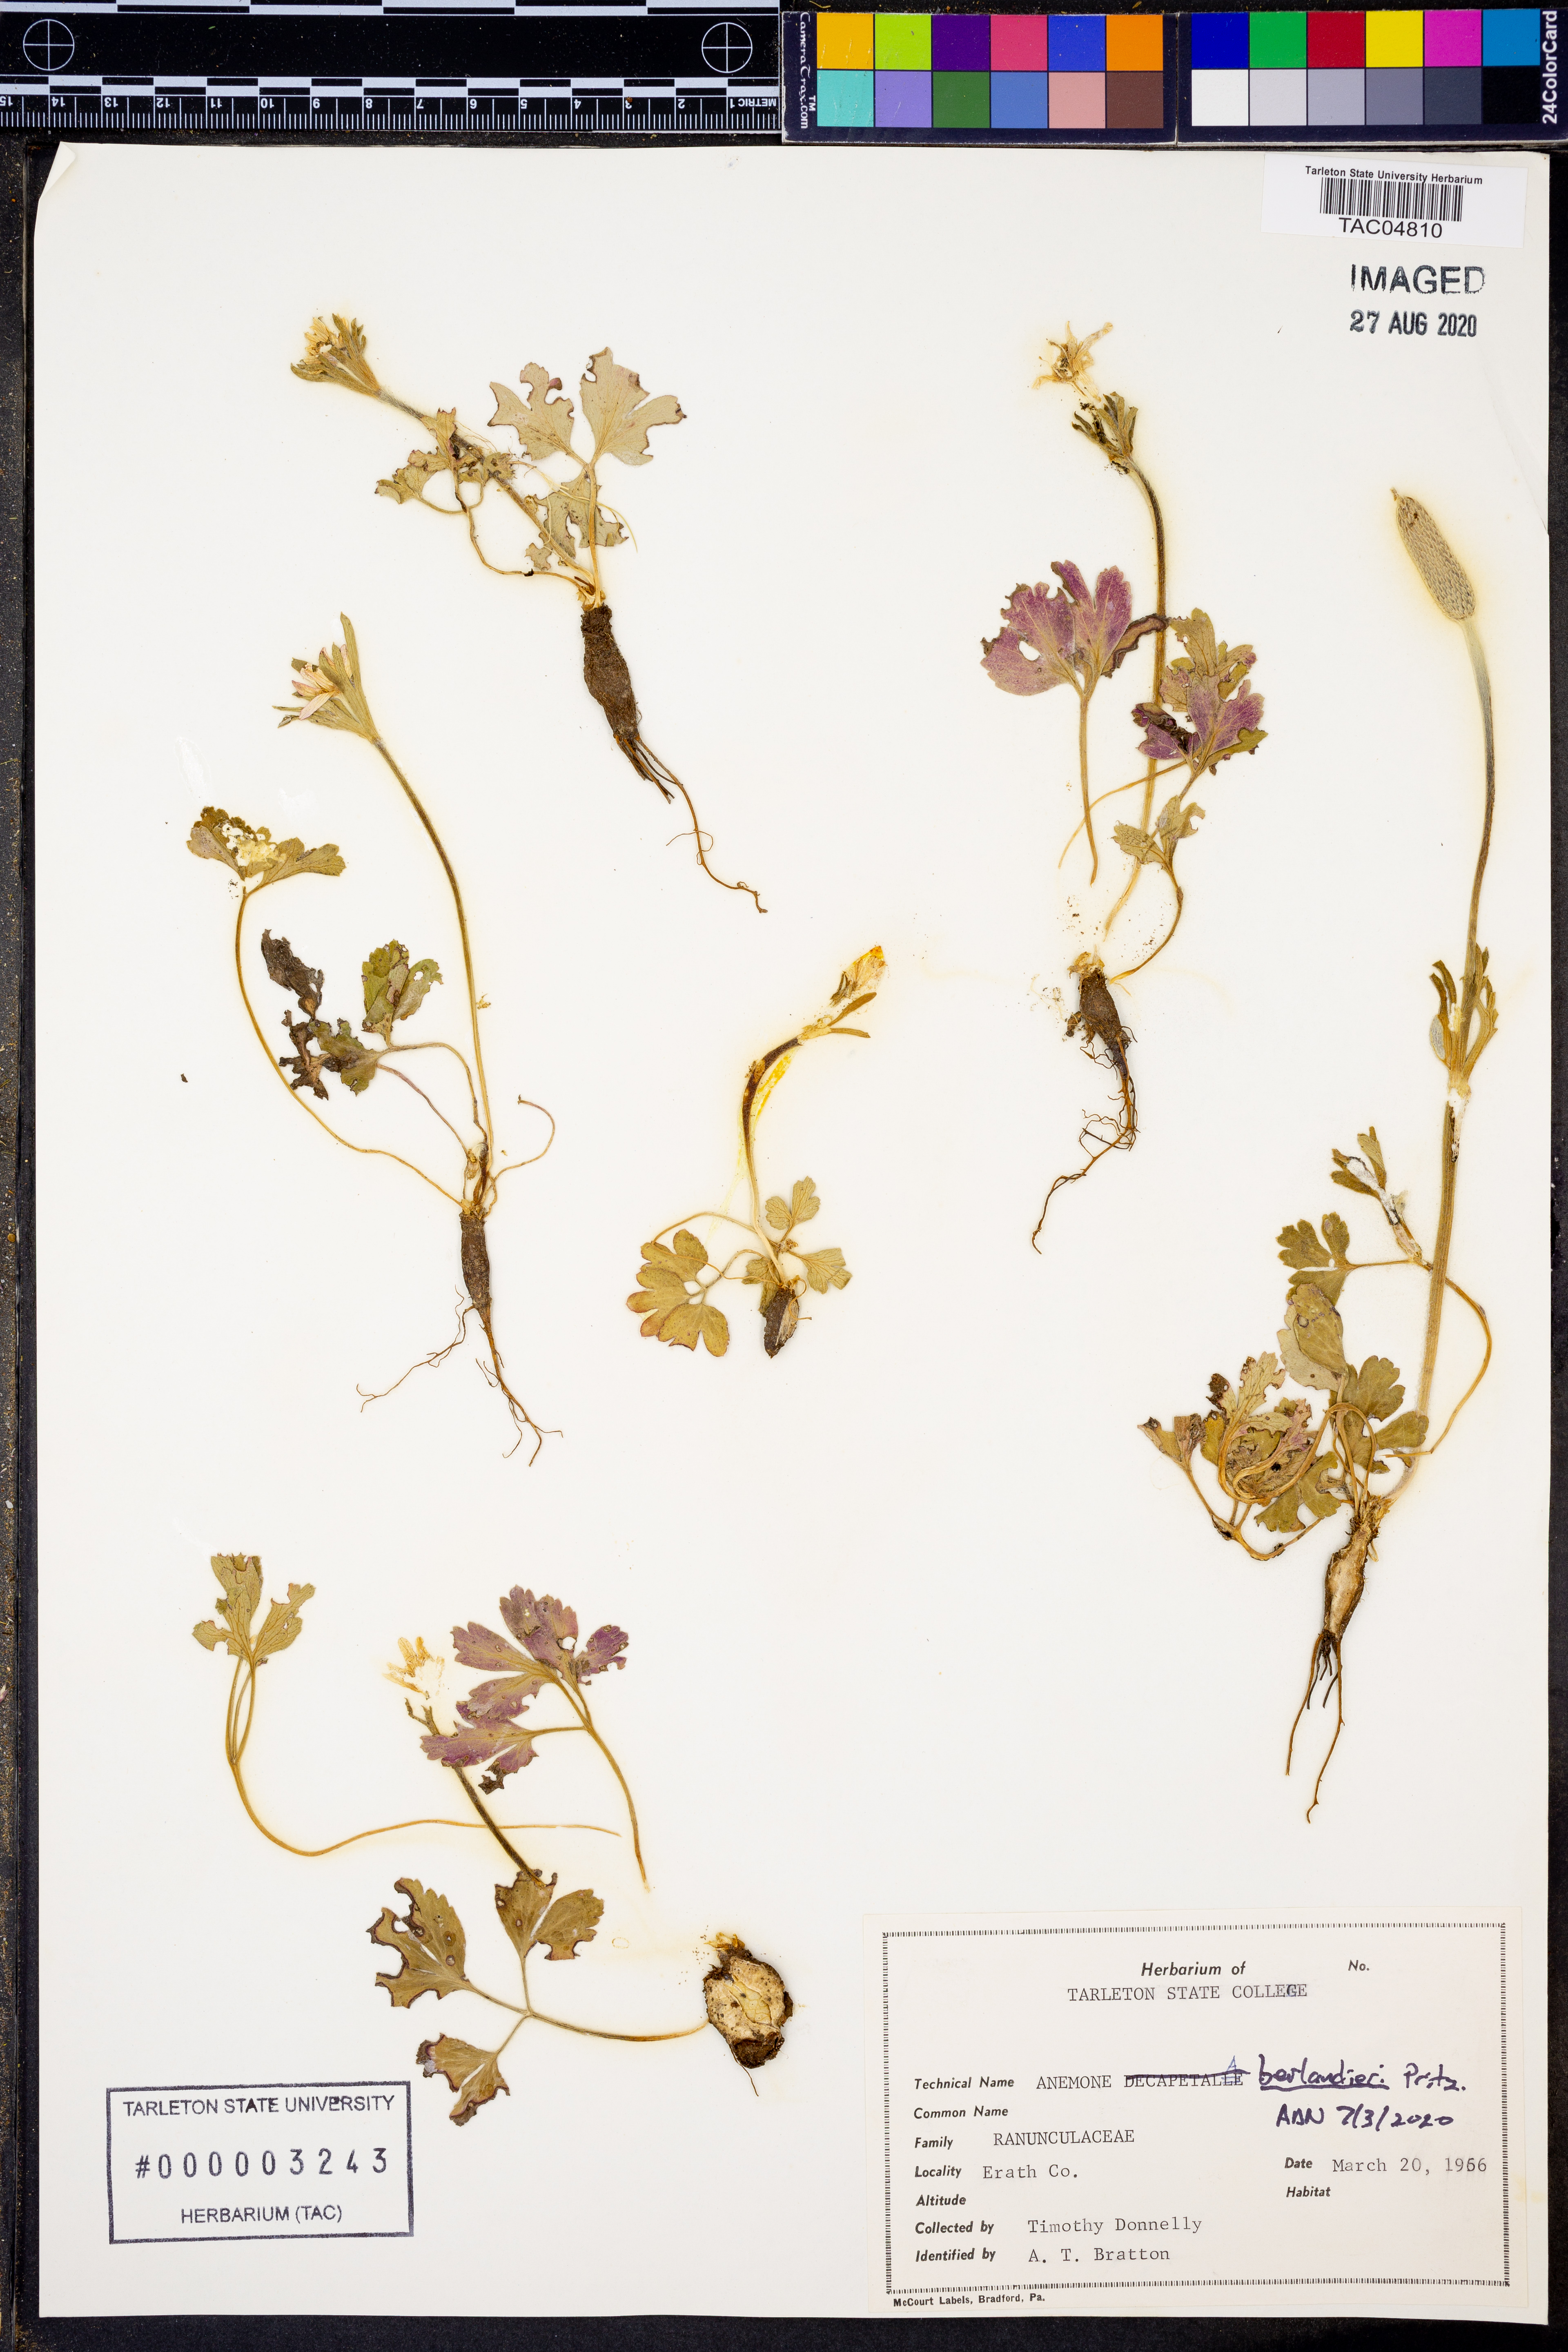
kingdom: Plantae
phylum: Tracheophyta
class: Magnoliopsida
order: Ranunculales
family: Ranunculaceae
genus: Anemone
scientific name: Anemone berlandieri
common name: Ten-petal anemone
